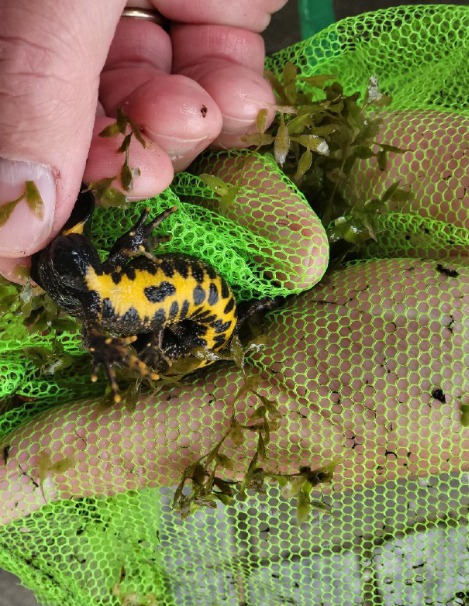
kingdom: Animalia
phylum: Chordata
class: Amphibia
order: Caudata
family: Salamandridae
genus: Triturus
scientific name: Triturus cristatus
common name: Stor vandsalamander
